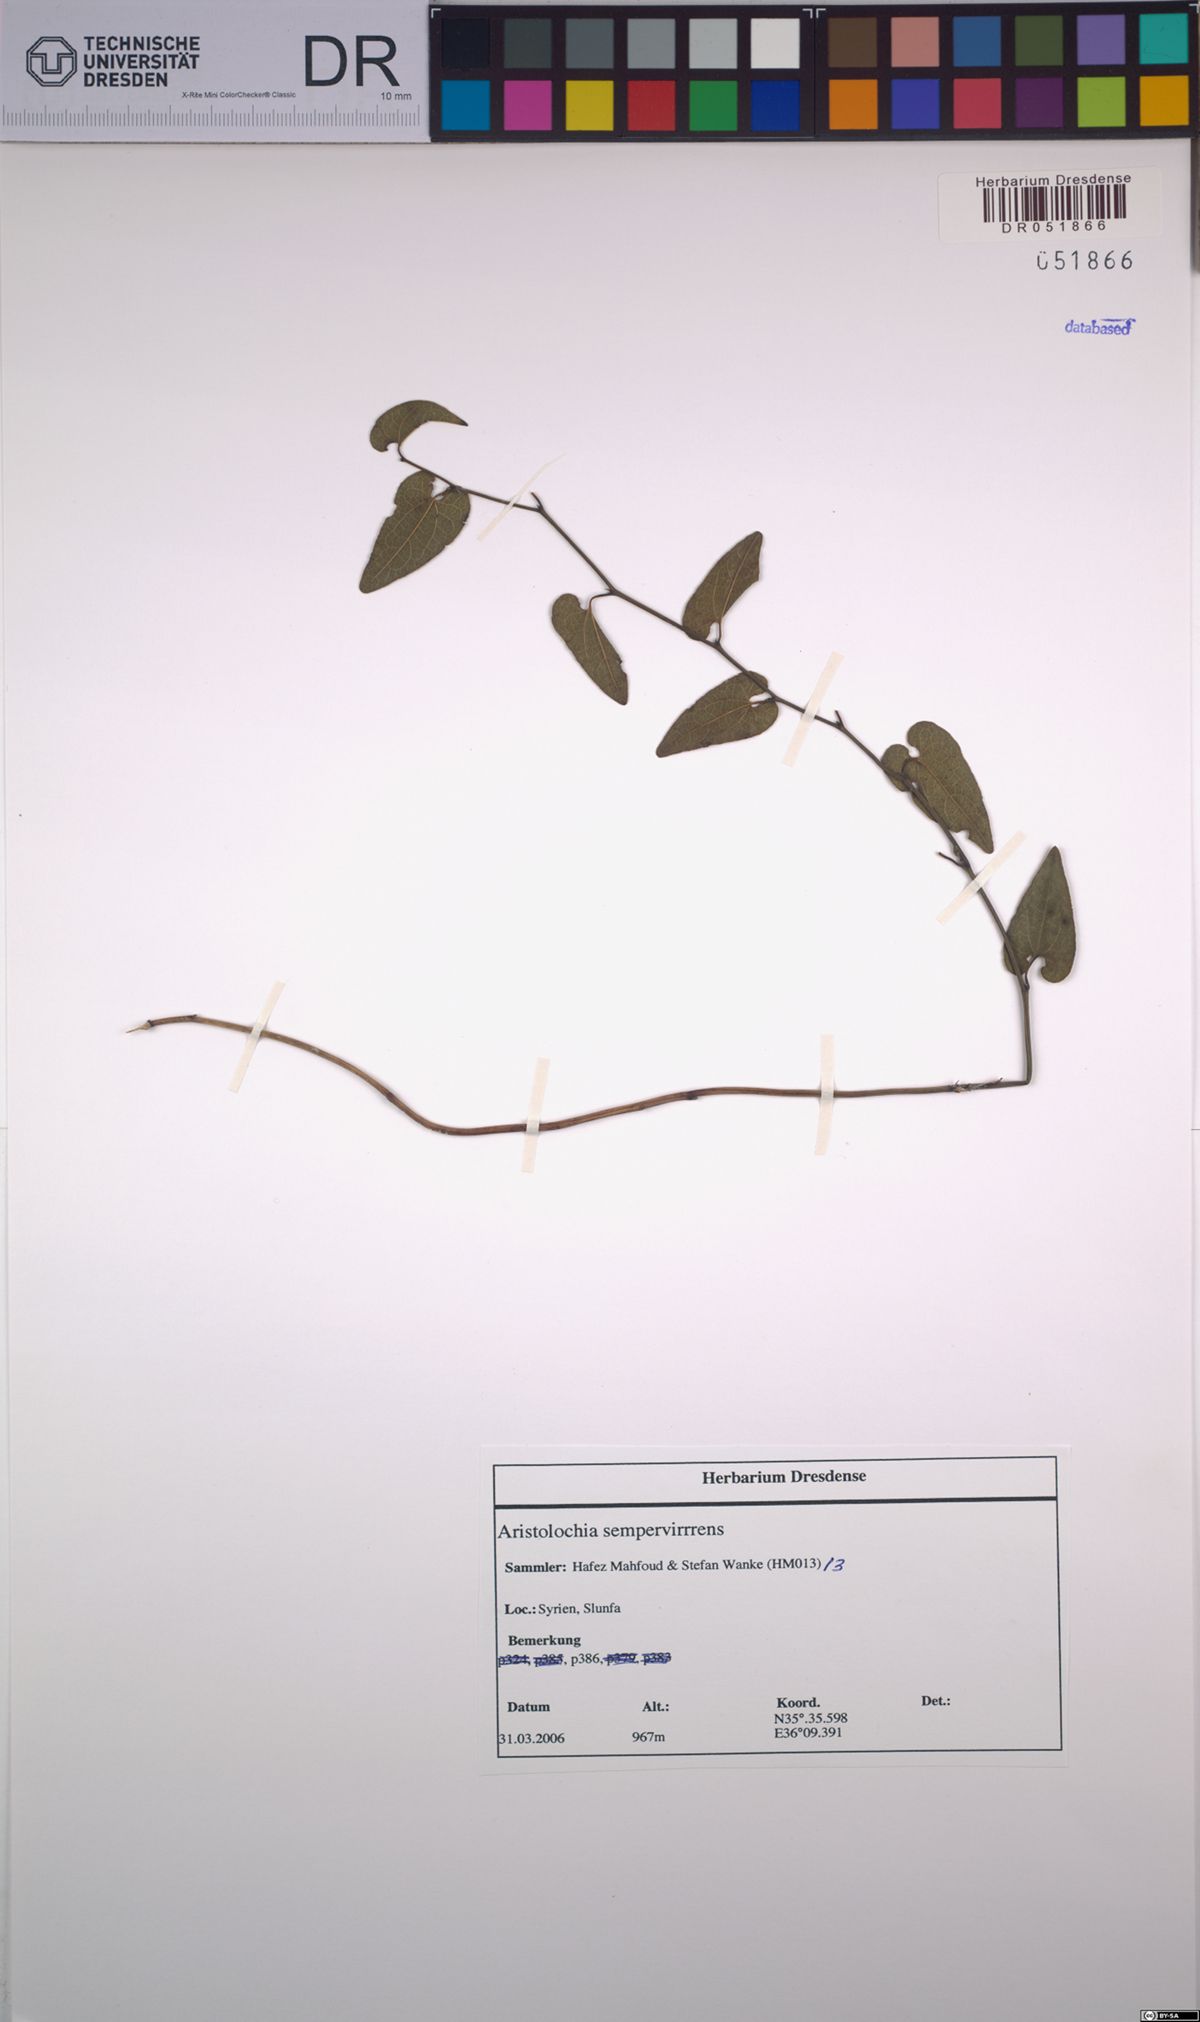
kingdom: Plantae
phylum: Tracheophyta
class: Magnoliopsida
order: Piperales
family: Aristolochiaceae
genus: Aristolochia
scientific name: Aristolochia sempervirens
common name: Long birthwort
